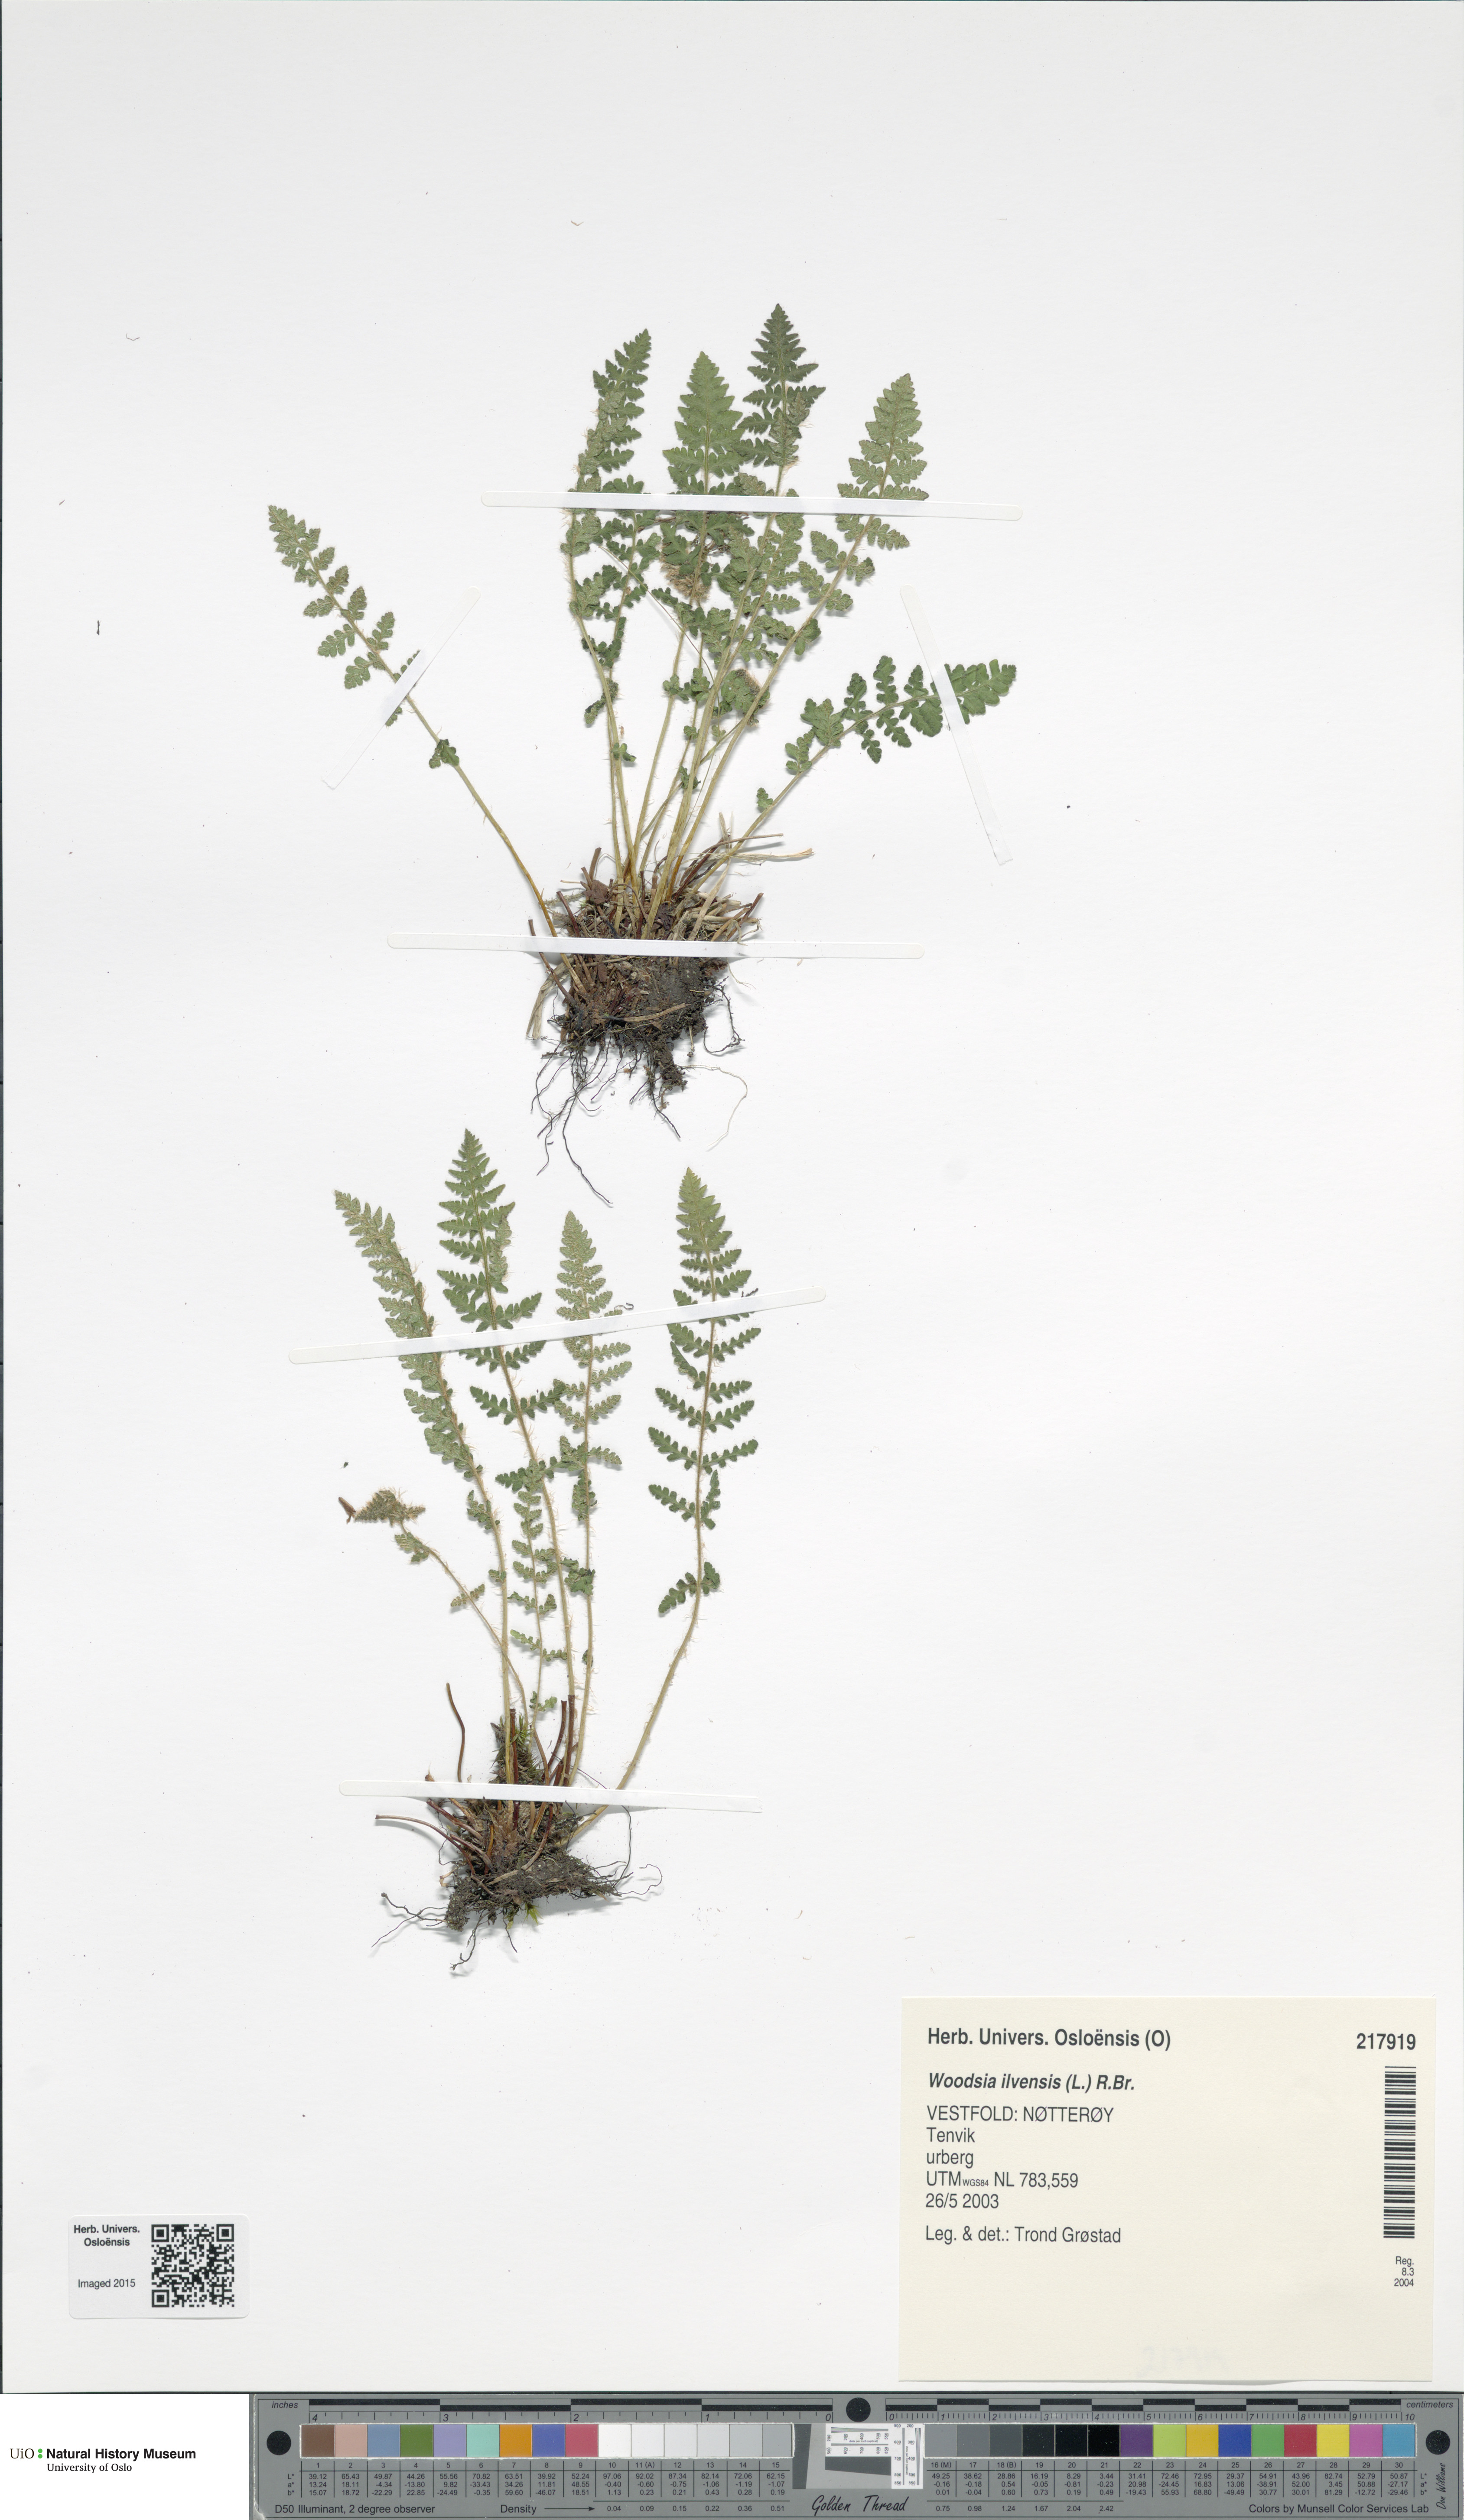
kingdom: Plantae
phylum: Tracheophyta
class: Polypodiopsida
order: Polypodiales
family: Woodsiaceae
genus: Woodsia
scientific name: Woodsia ilvensis
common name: Fragrant woodsia
